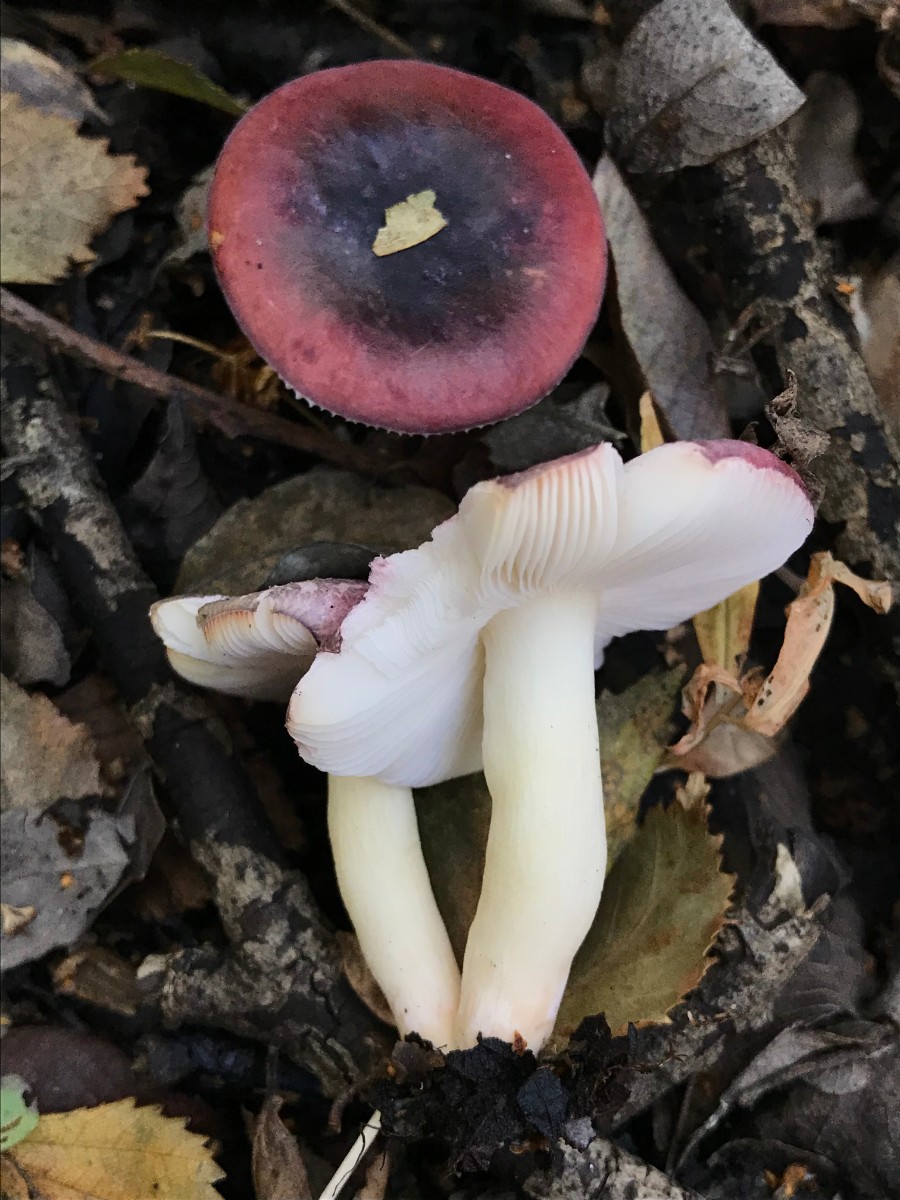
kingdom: Fungi
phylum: Basidiomycota
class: Agaricomycetes
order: Russulales
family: Russulaceae
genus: Russula
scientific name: Russula laccata
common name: klit-skørhat
